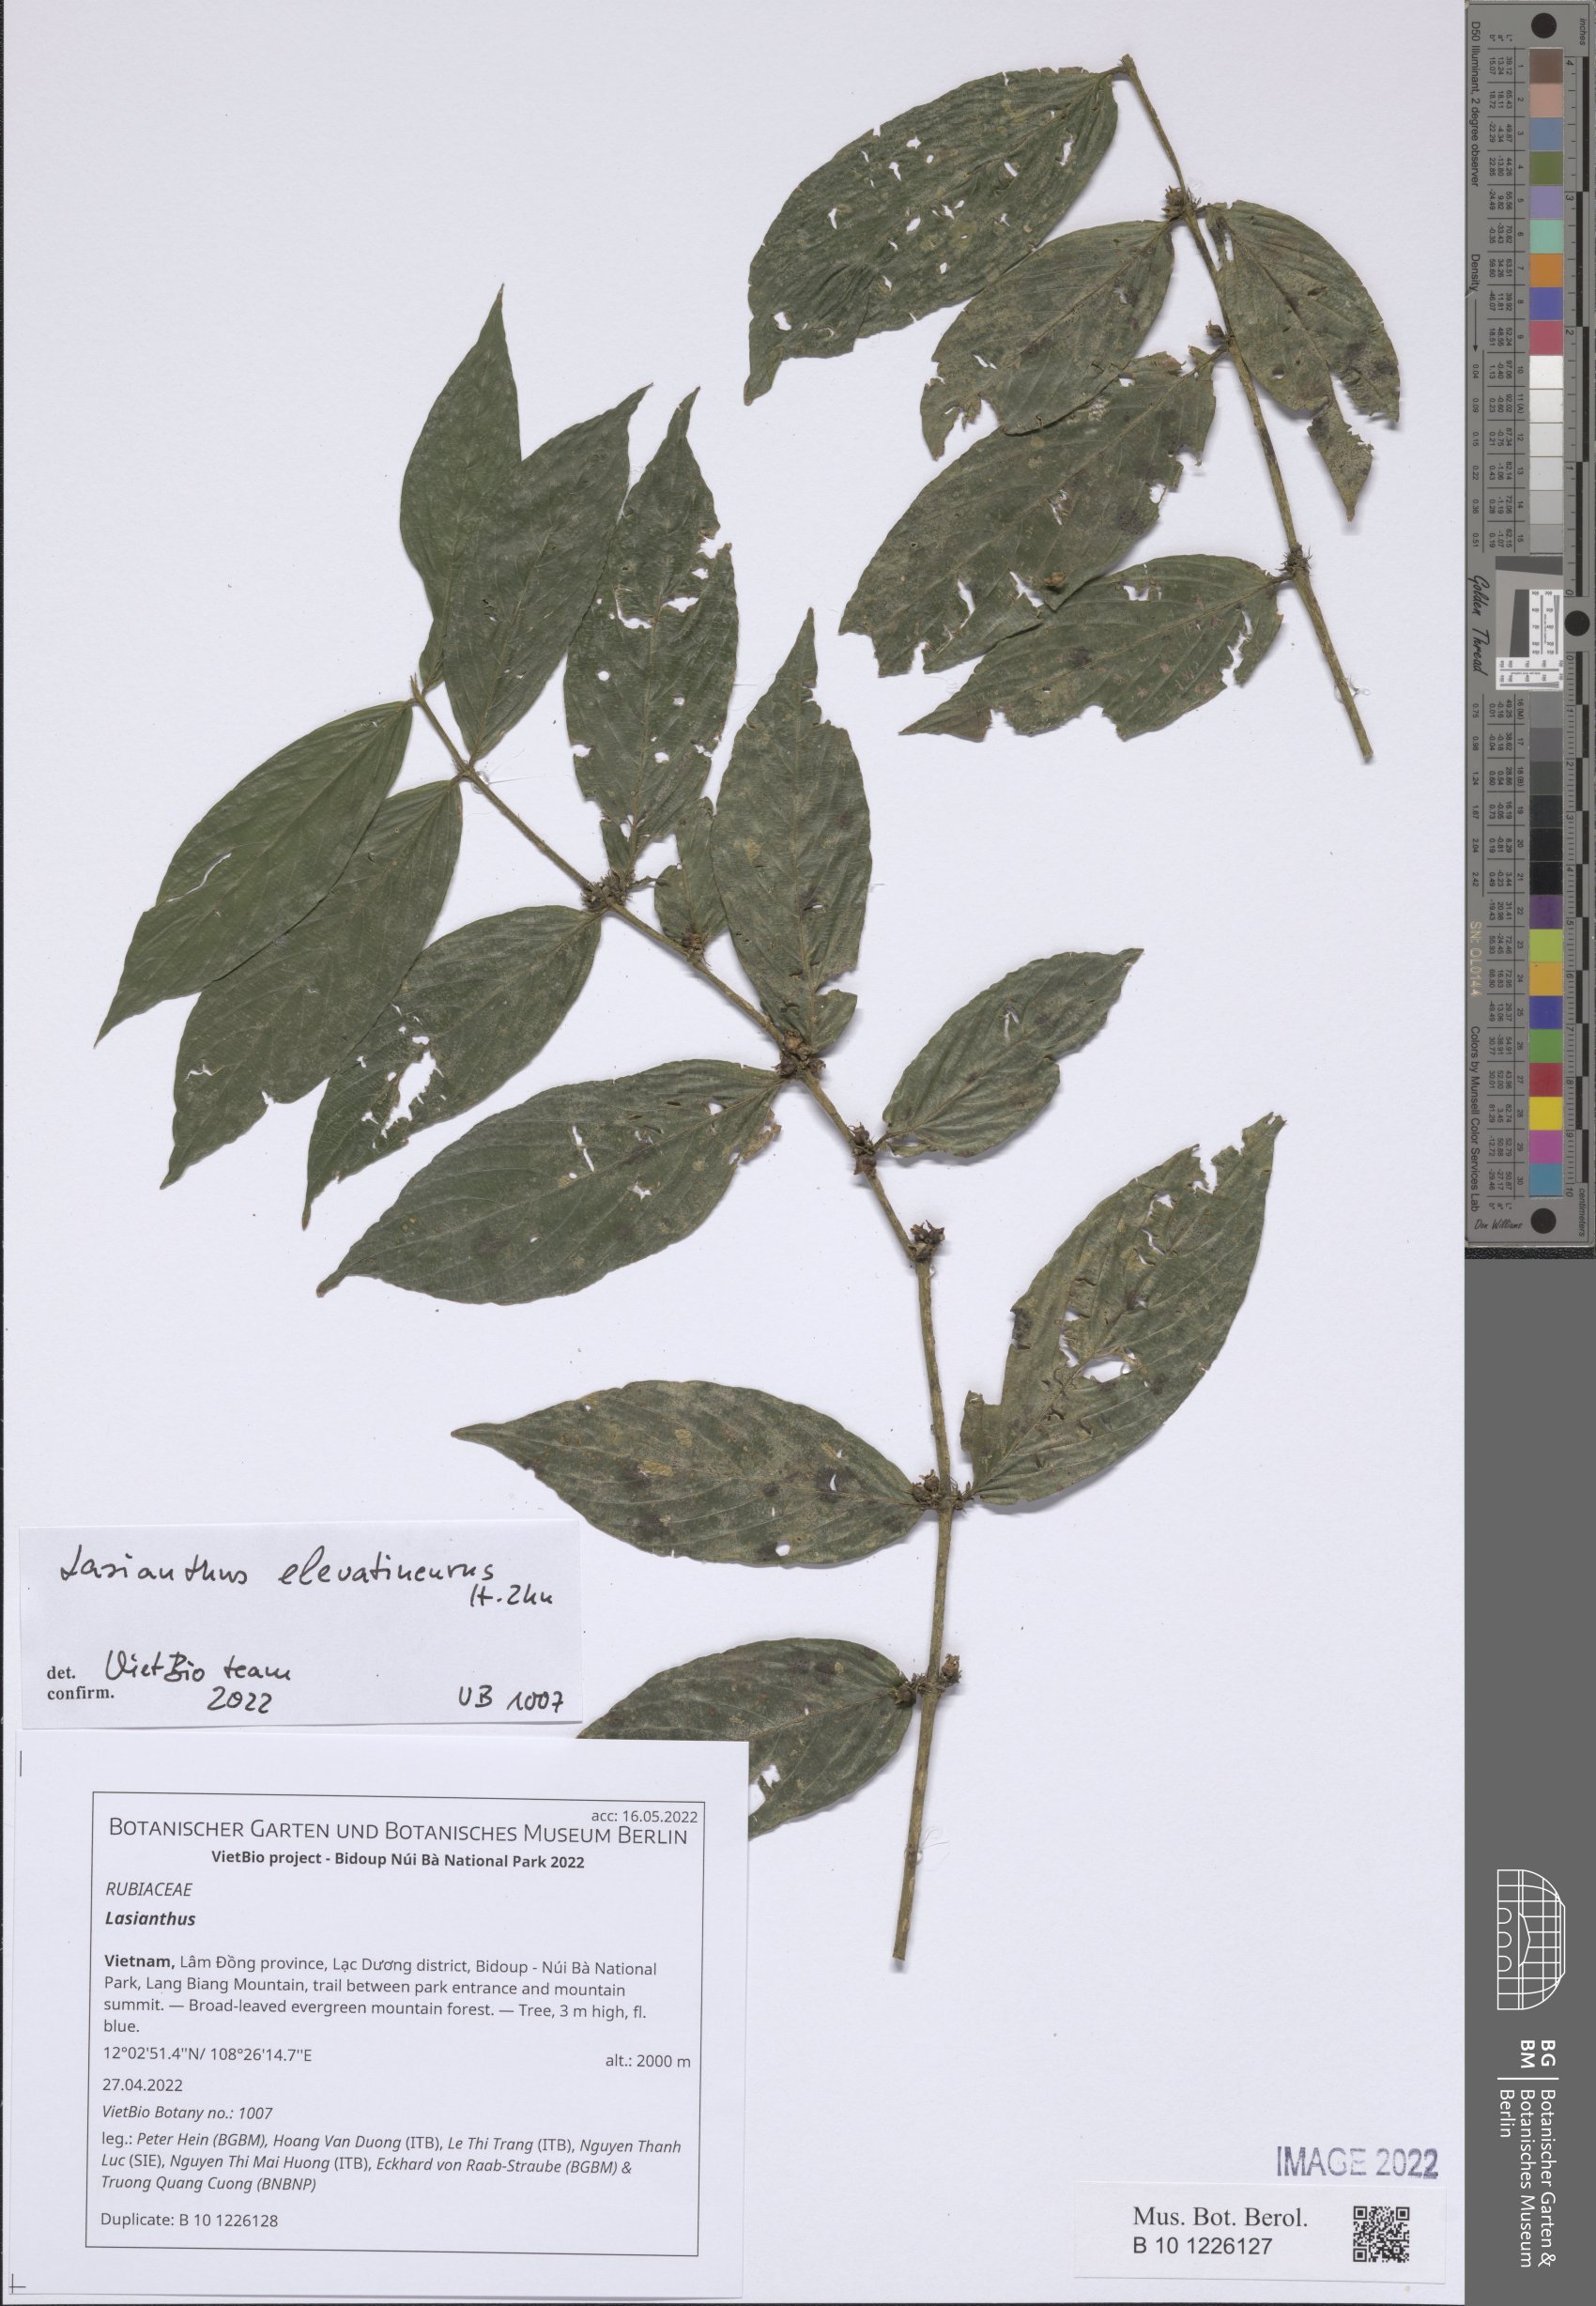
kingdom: Plantae
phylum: Tracheophyta
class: Magnoliopsida
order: Gentianales
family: Rubiaceae
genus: Lasianthus
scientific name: Lasianthus
